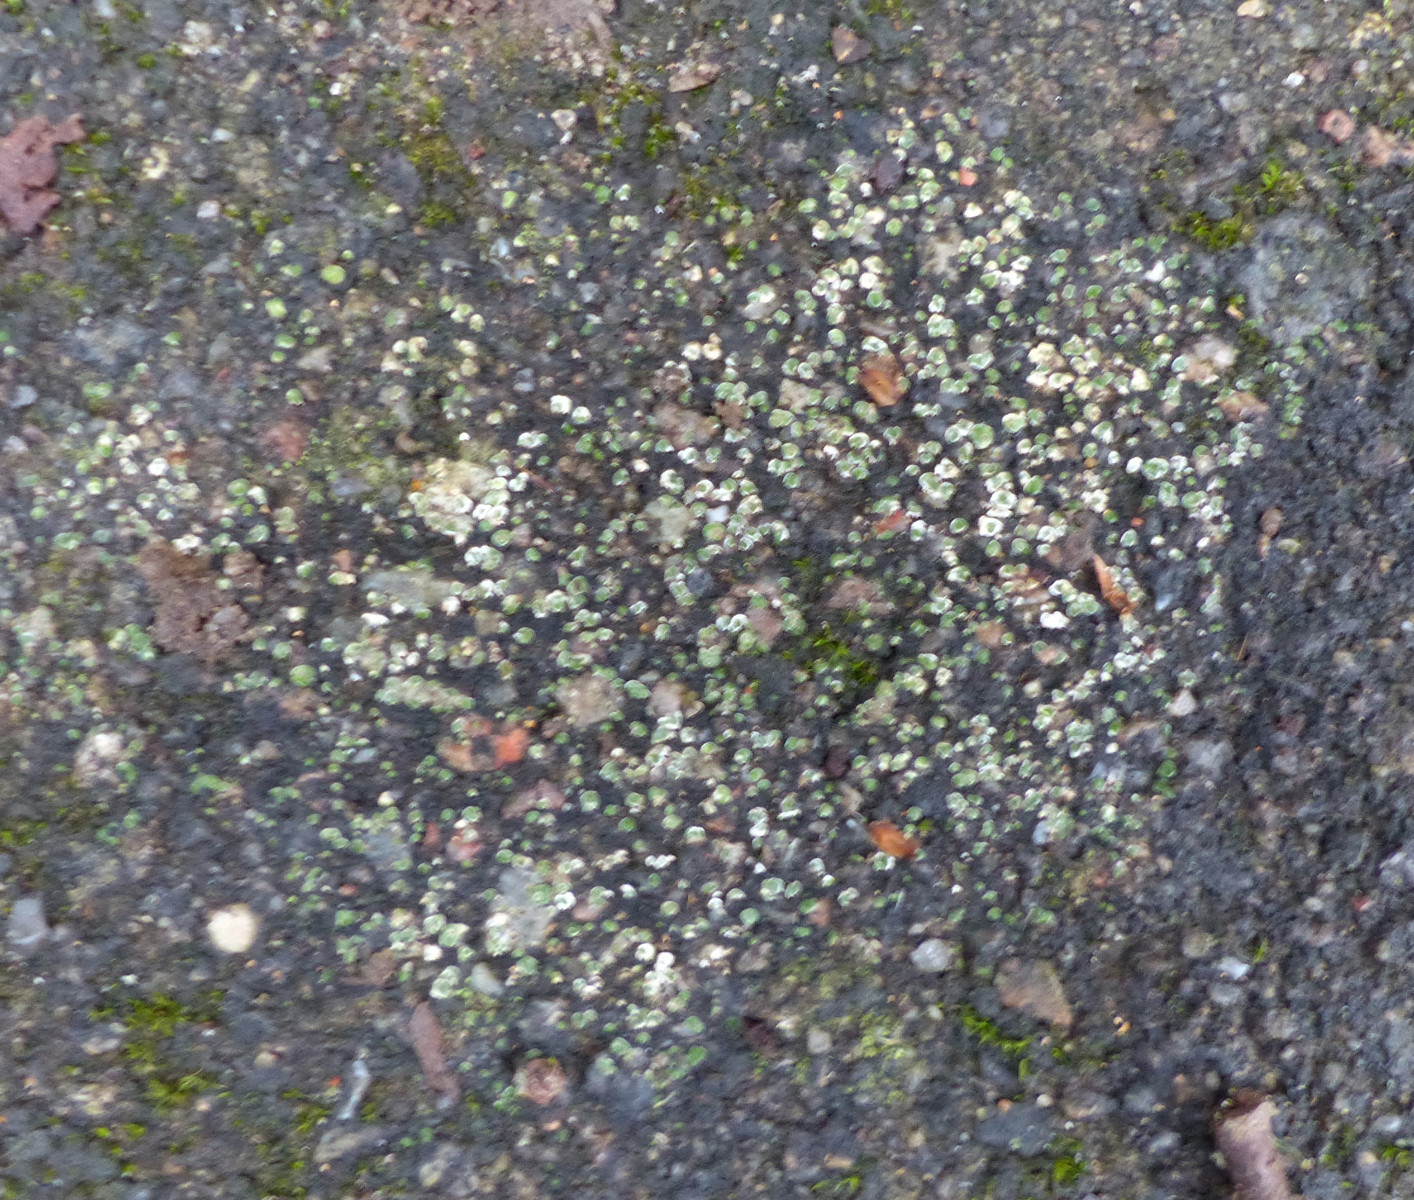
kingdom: Fungi
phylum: Ascomycota
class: Lecanoromycetes
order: Pertusariales
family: Megasporaceae
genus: Circinaria
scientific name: Circinaria contorta
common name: indviklet hulskivelav
